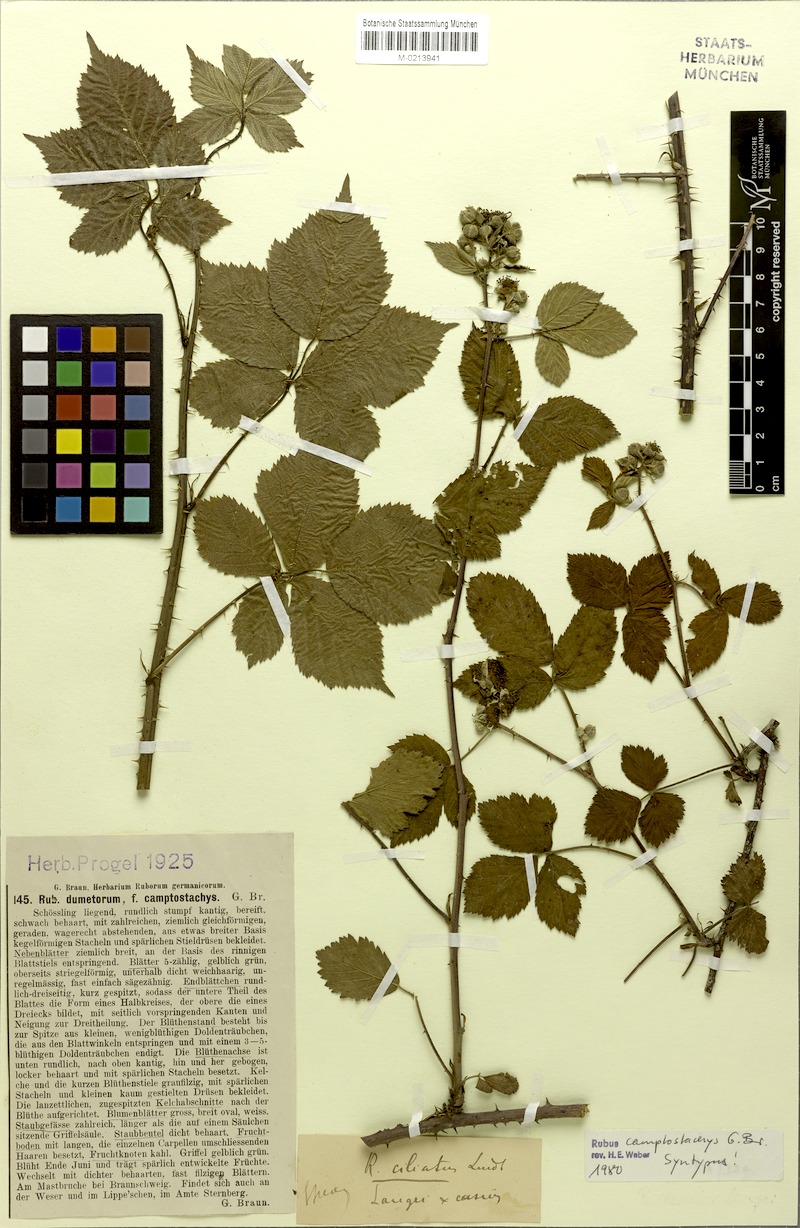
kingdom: Plantae
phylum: Tracheophyta
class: Magnoliopsida
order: Rosales
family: Rosaceae
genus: Rubus
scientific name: Rubus camptostachys
